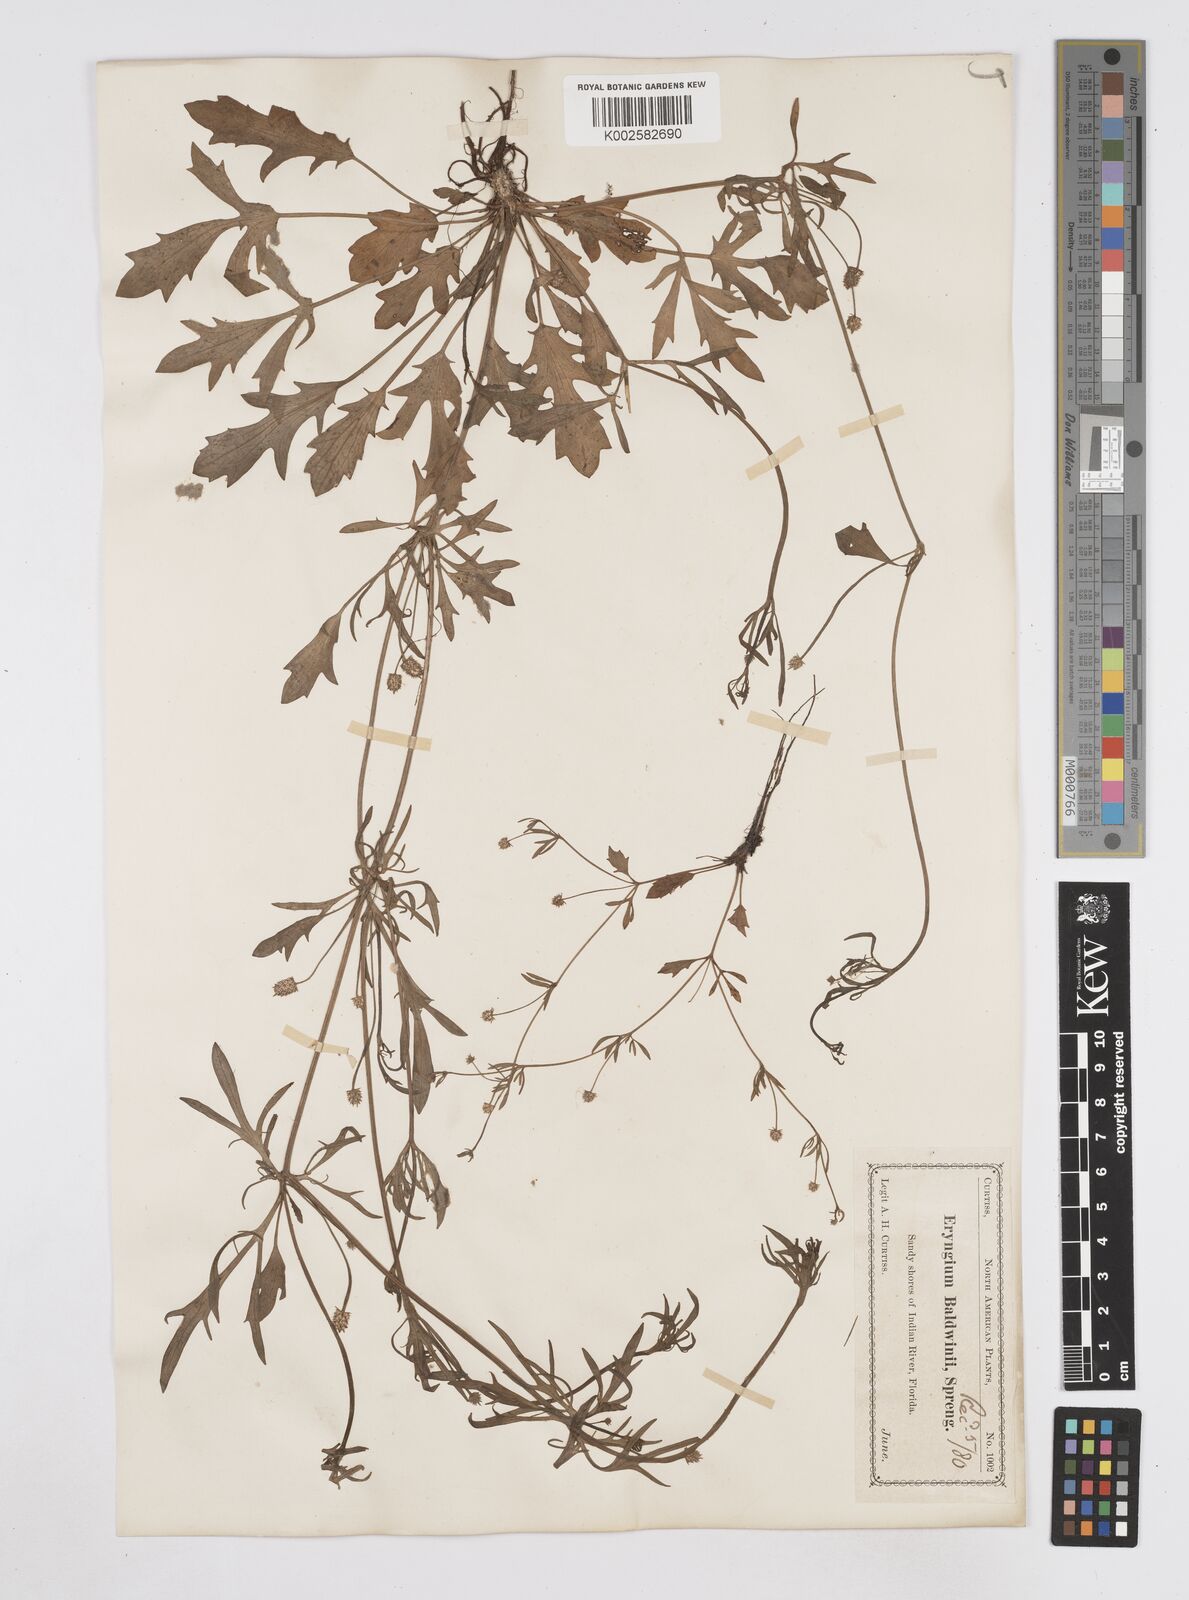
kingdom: Plantae
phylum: Tracheophyta
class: Magnoliopsida
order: Apiales
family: Apiaceae
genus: Eryngium
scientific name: Eryngium baldwinii
